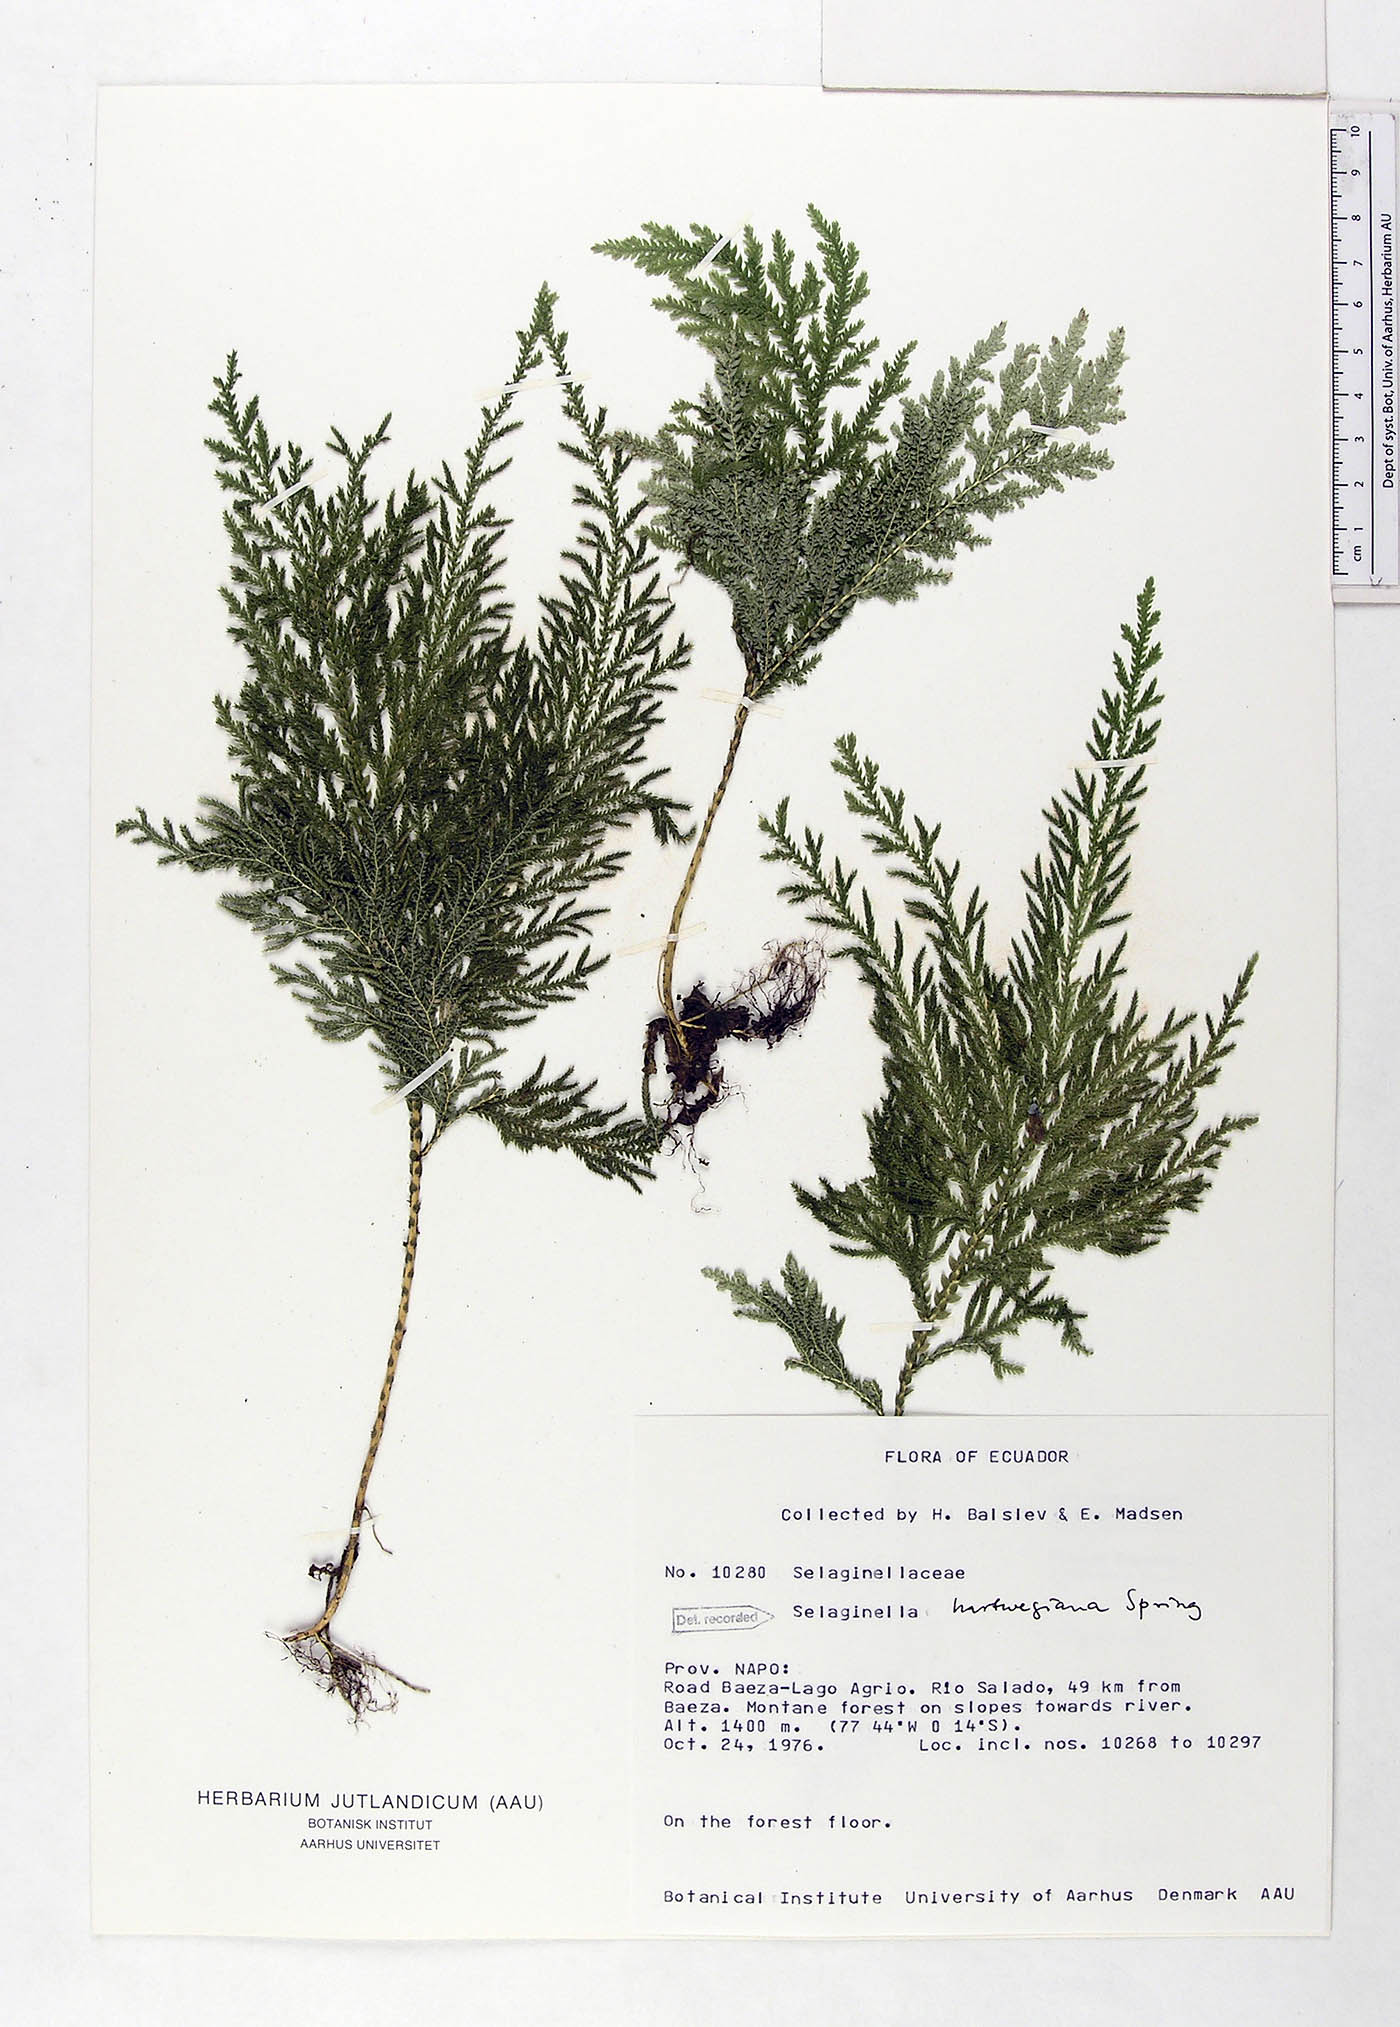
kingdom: Plantae
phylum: Tracheophyta
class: Lycopodiopsida
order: Selaginellales
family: Selaginellaceae
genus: Selaginella
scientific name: Selaginella hartwegiana
